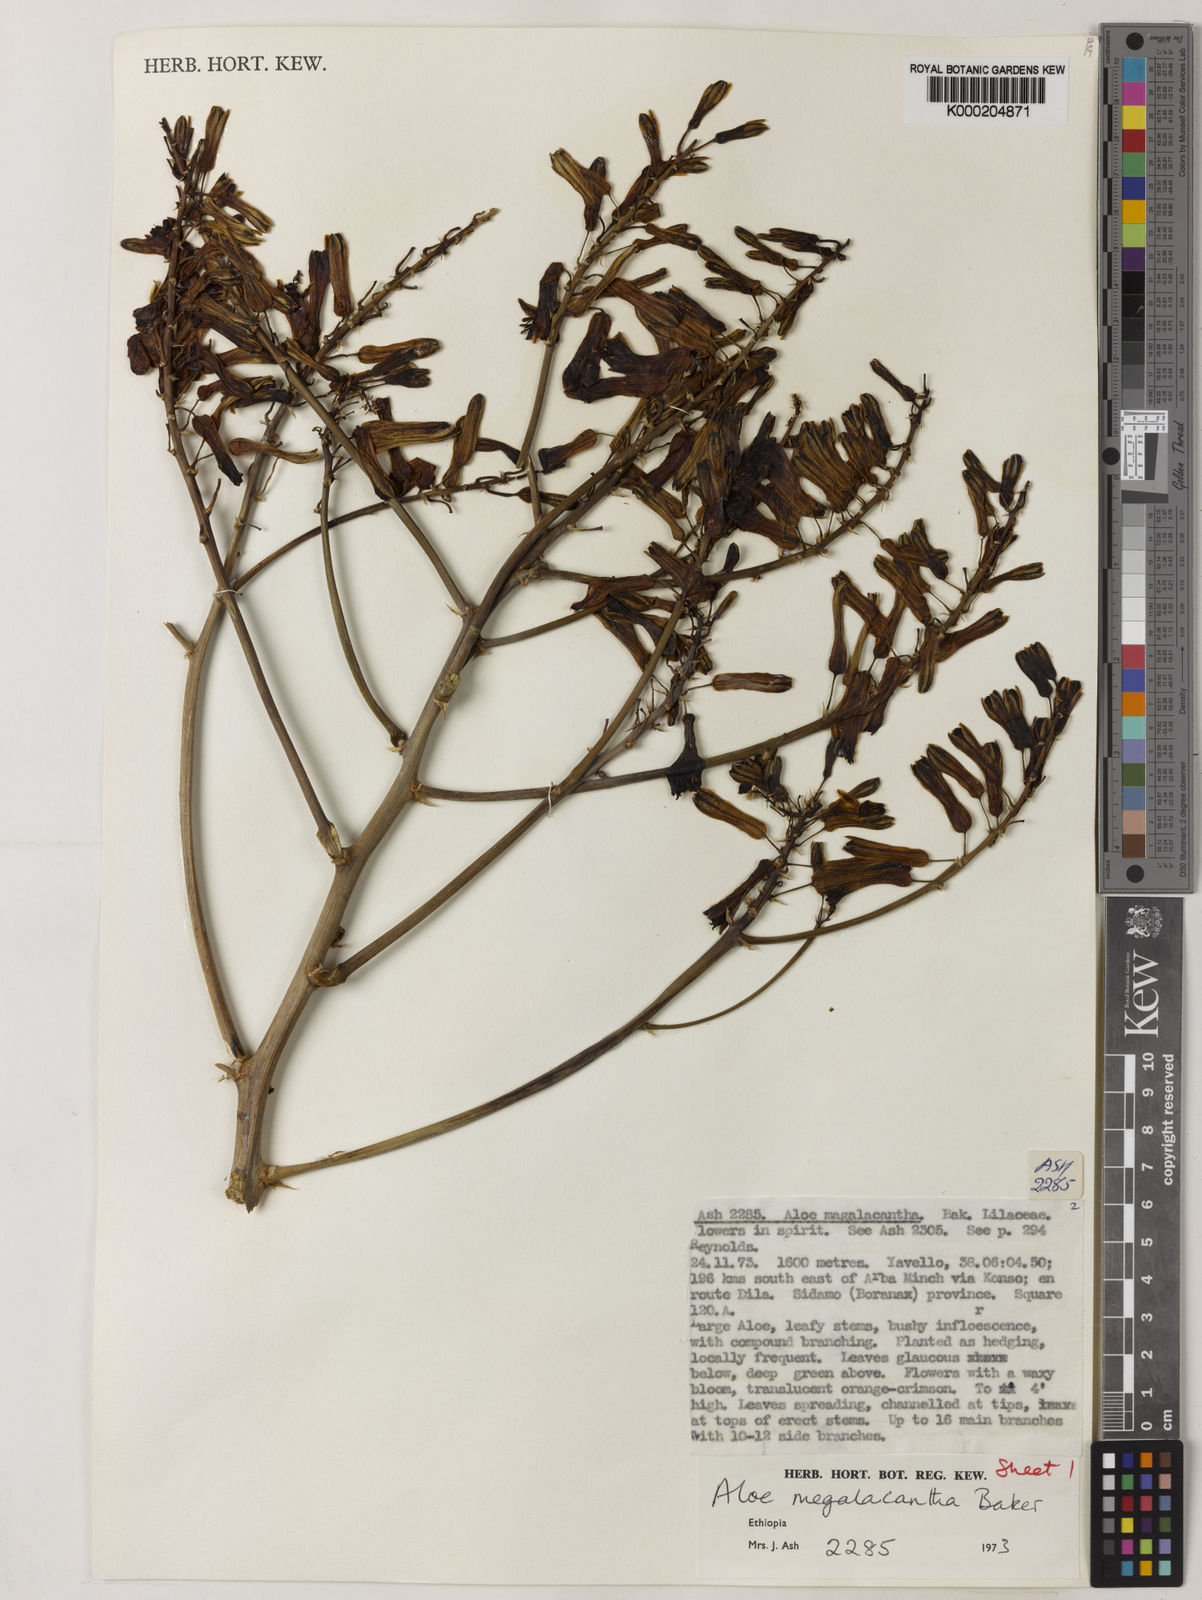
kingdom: Plantae
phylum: Tracheophyta
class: Liliopsida
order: Asparagales
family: Asphodelaceae
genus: Aloe
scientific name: Aloe gilbertii
